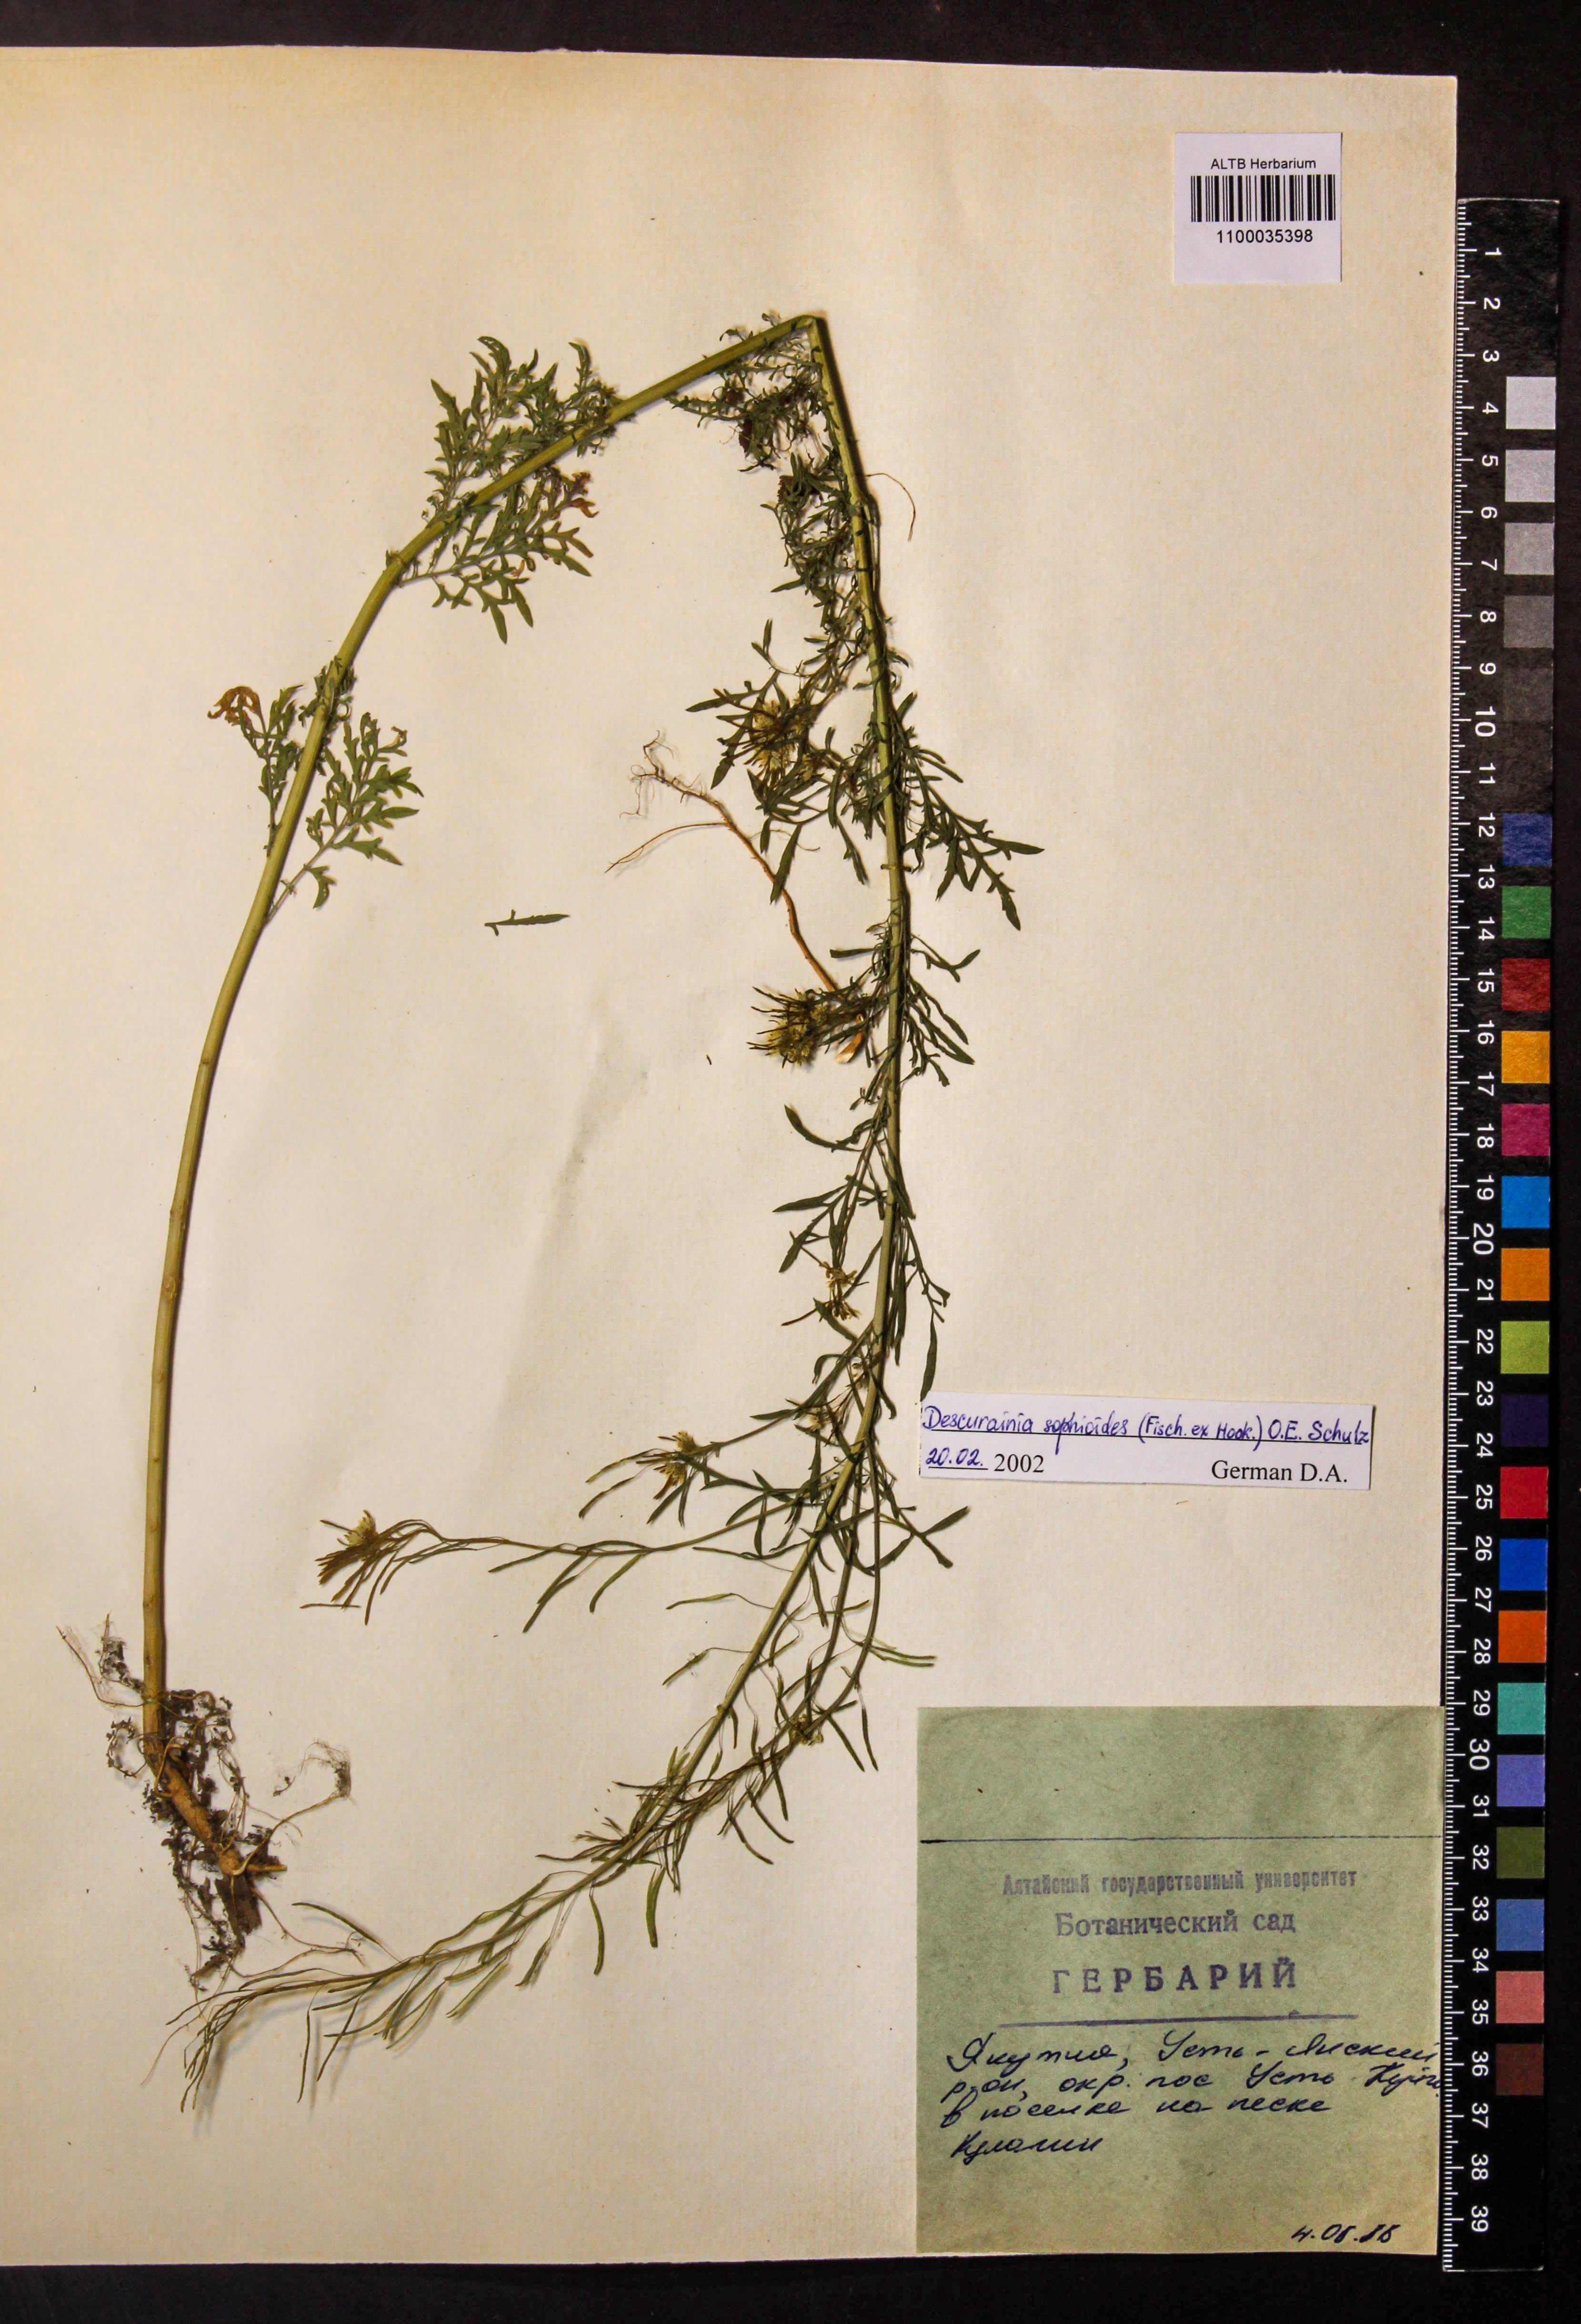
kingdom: Plantae
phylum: Tracheophyta
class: Magnoliopsida
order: Brassicales
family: Brassicaceae
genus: Descurainia
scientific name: Descurainia sophioides
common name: Northern tansy mustard
